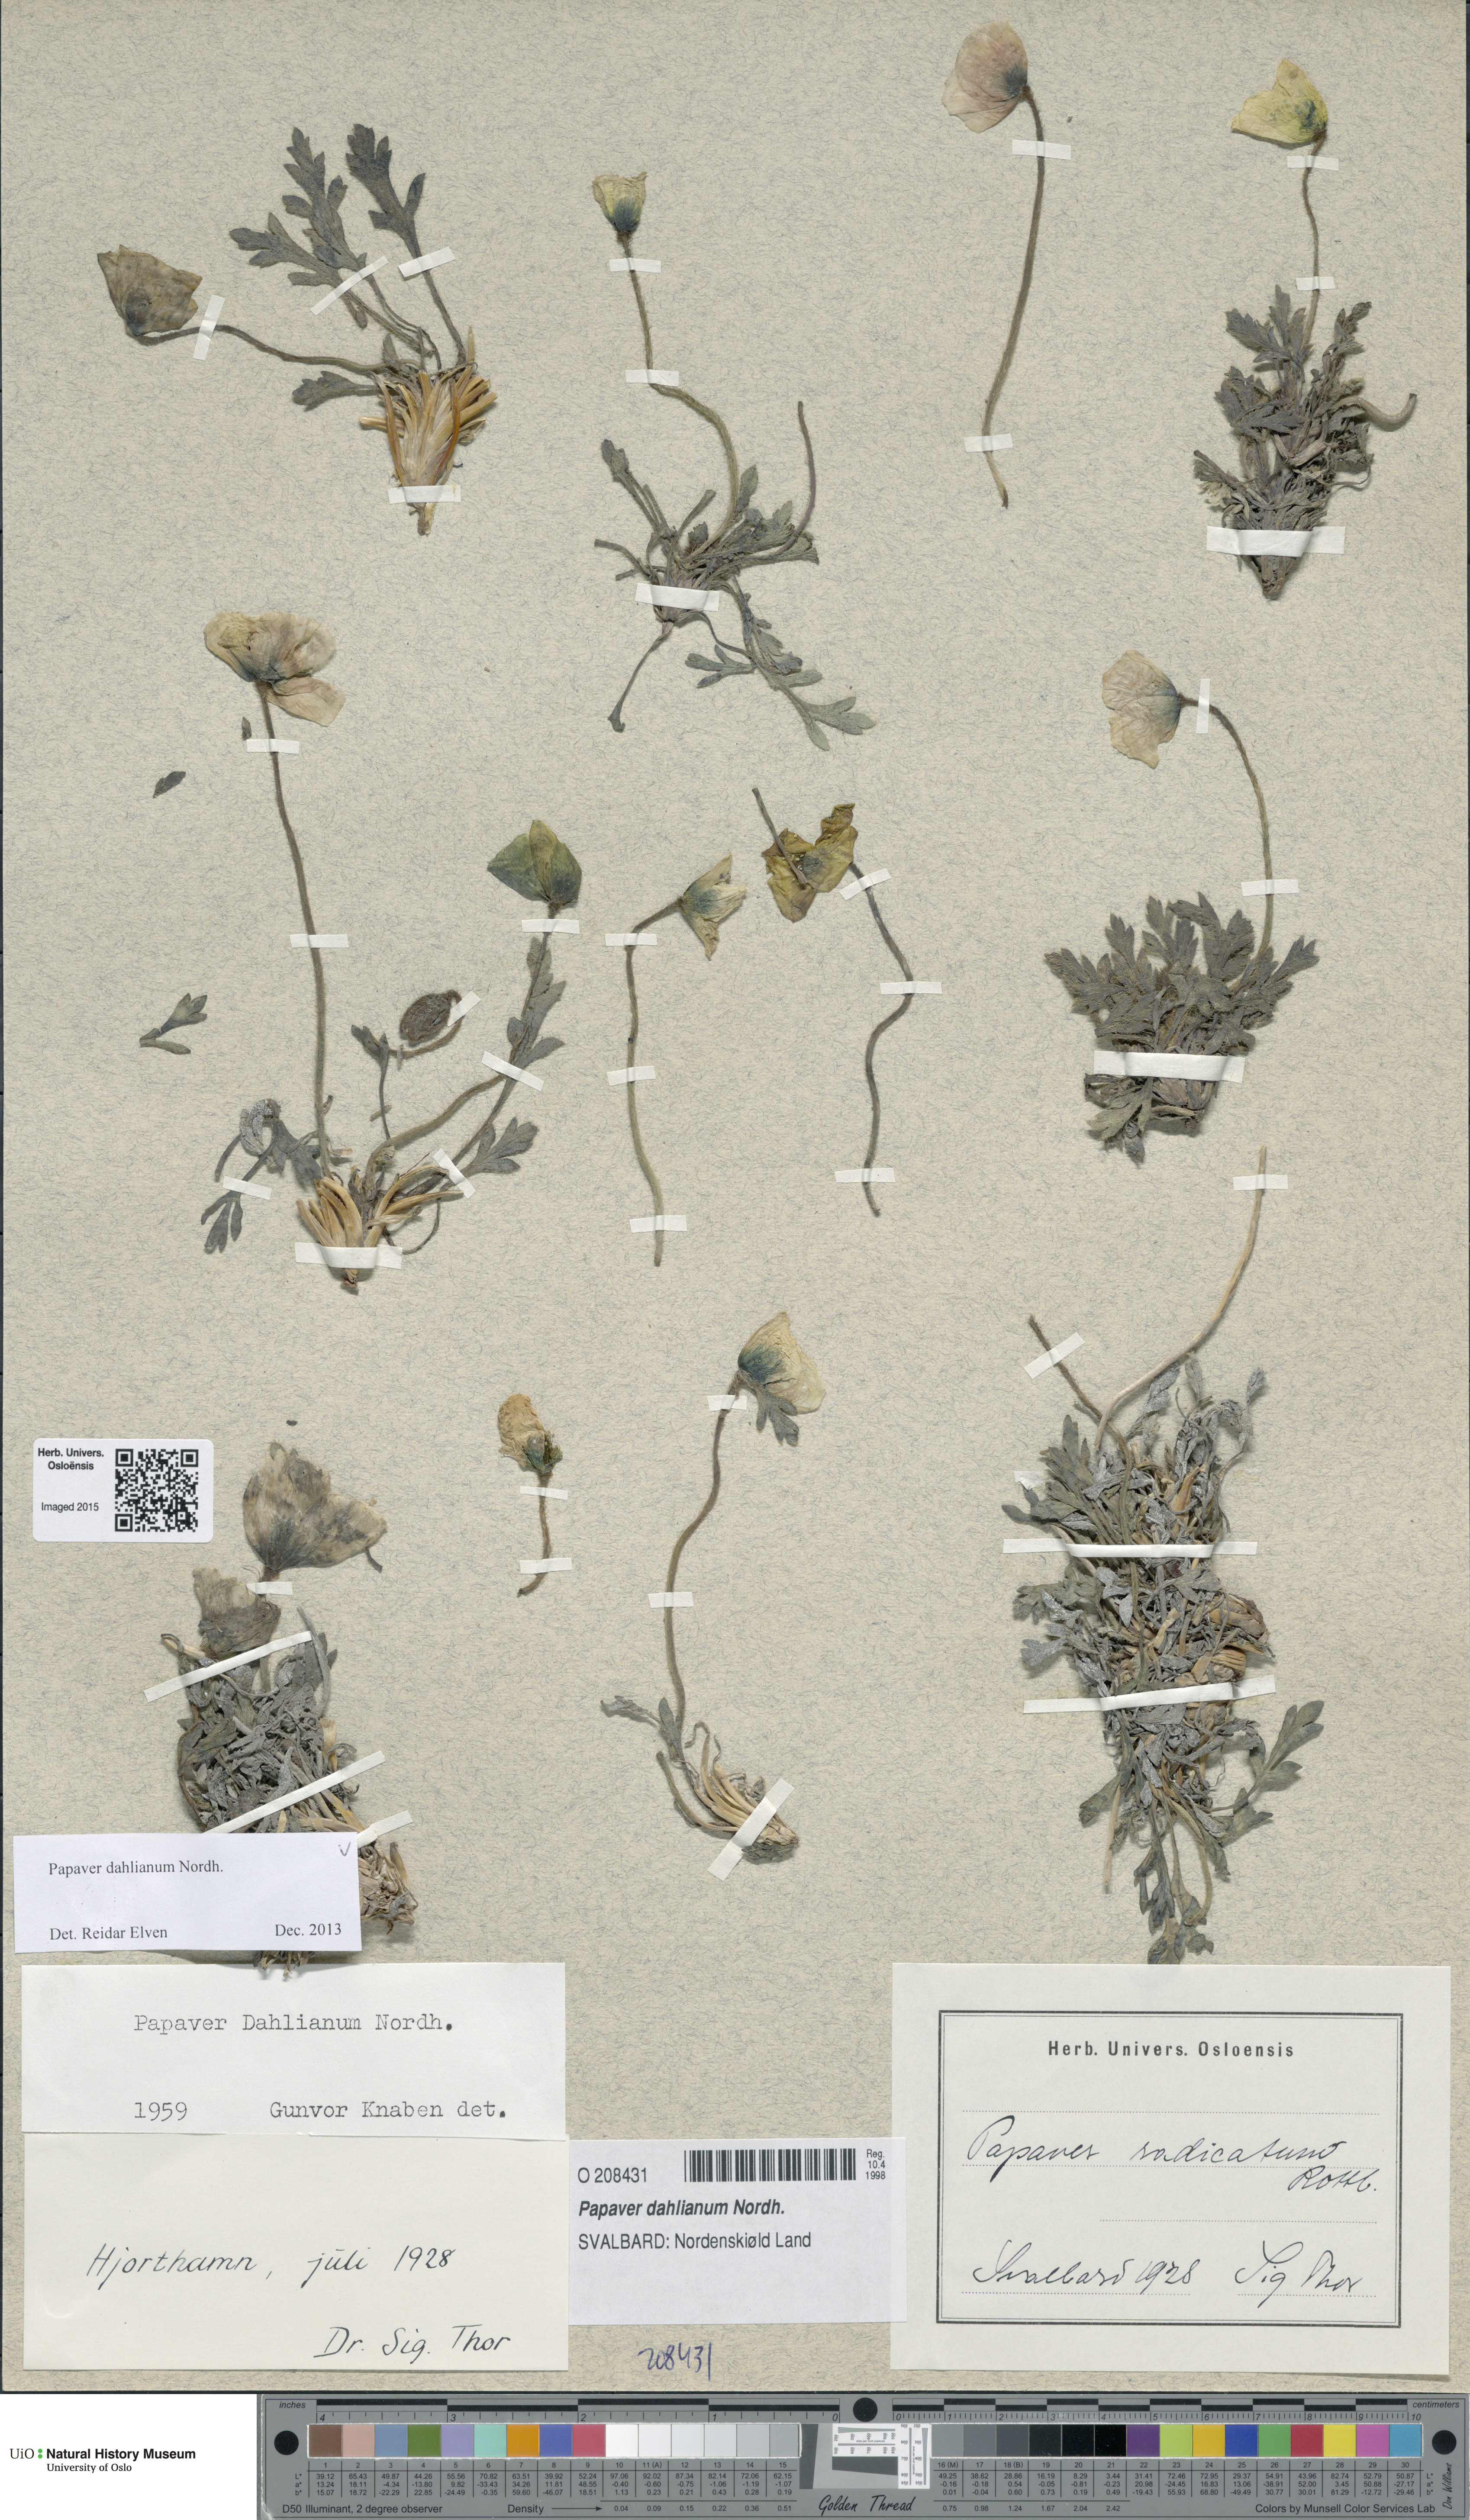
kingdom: Plantae
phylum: Tracheophyta
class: Magnoliopsida
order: Ranunculales
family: Papaveraceae
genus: Papaver
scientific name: Papaver radicatum
